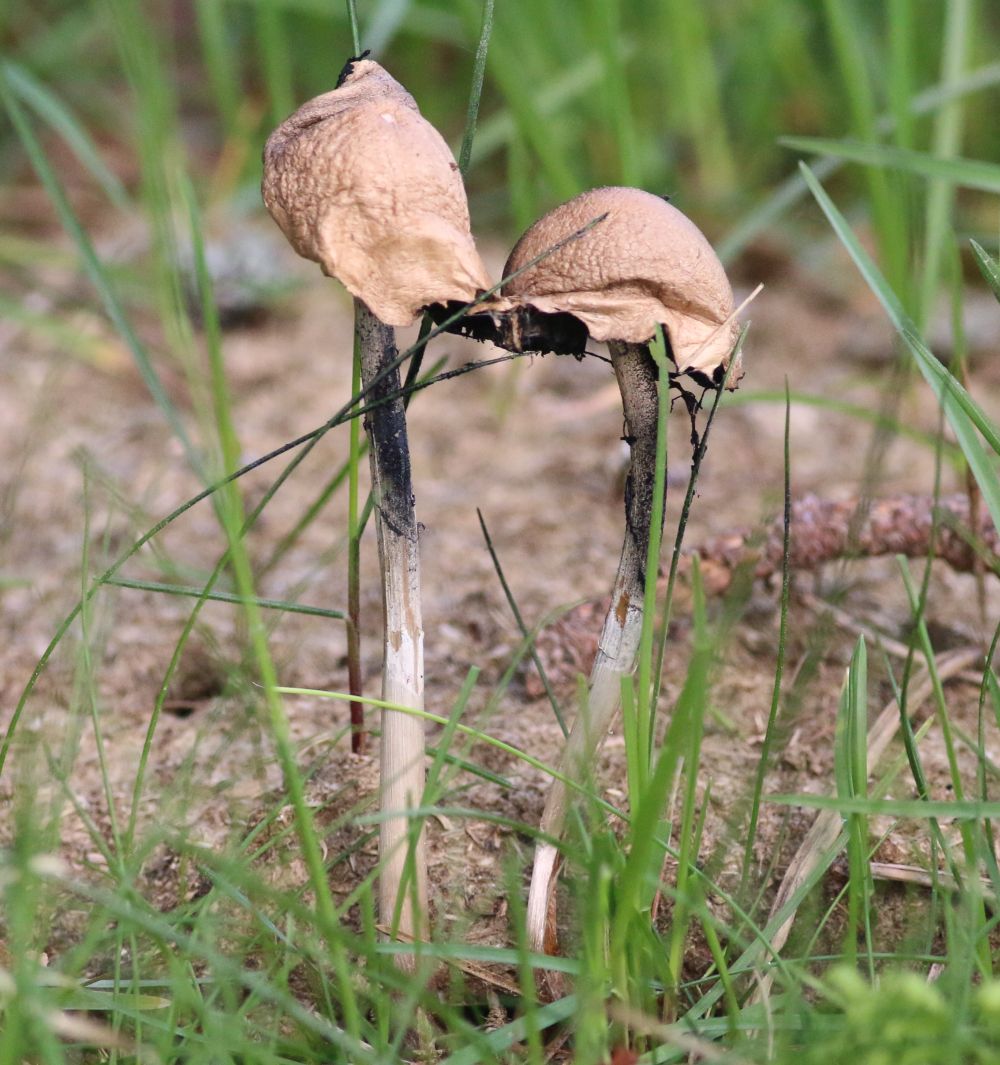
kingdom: Fungi
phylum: Basidiomycota
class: Agaricomycetes
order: Agaricales
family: Bolbitiaceae
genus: Panaeolus
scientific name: Panaeolus semiovatus
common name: ring-glanshat
